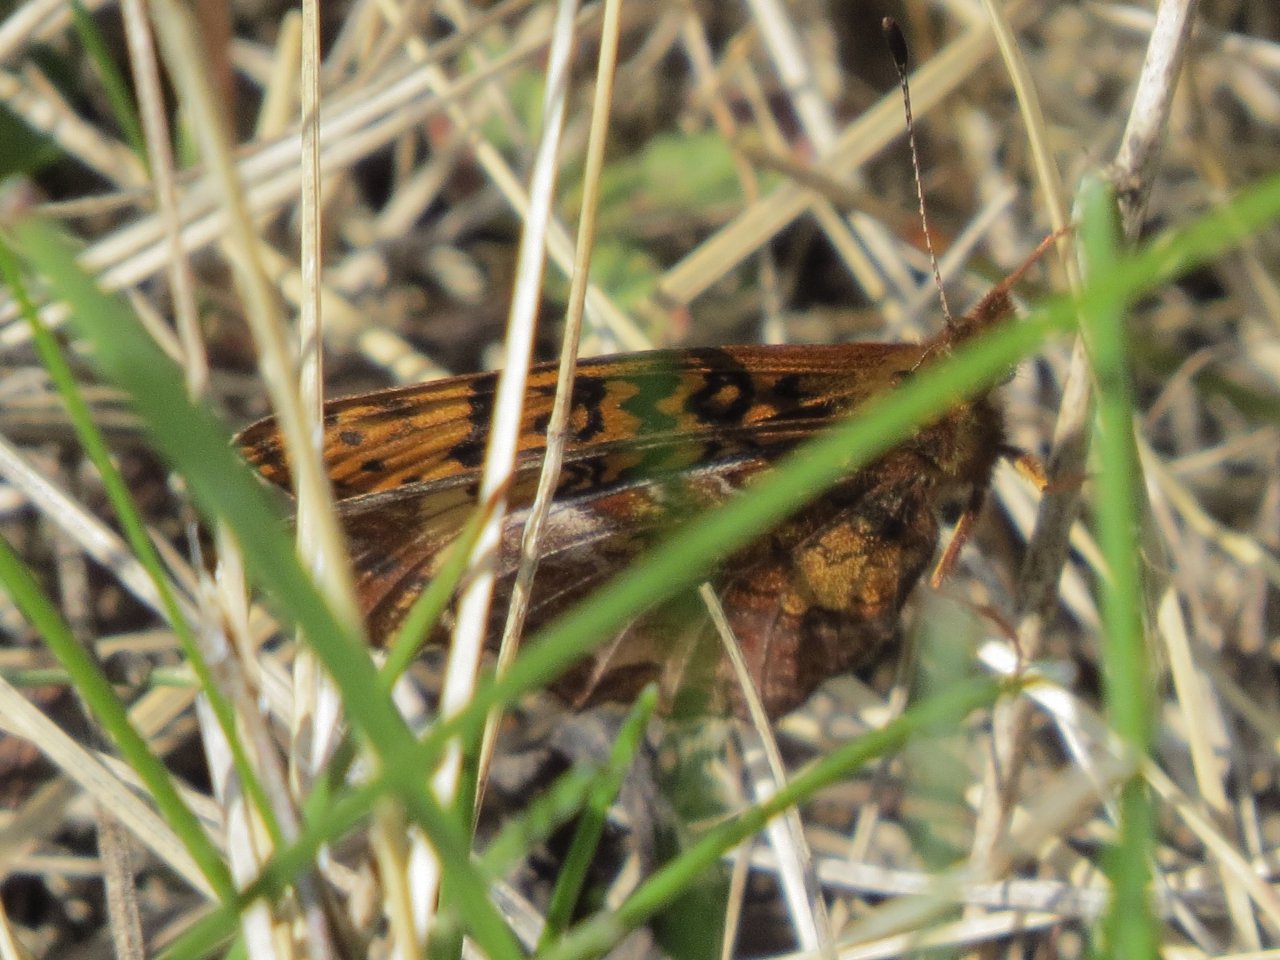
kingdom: Animalia
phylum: Arthropoda
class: Insecta
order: Lepidoptera
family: Nymphalidae
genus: Clossiana
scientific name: Clossiana toddi
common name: Meadow Fritillary
